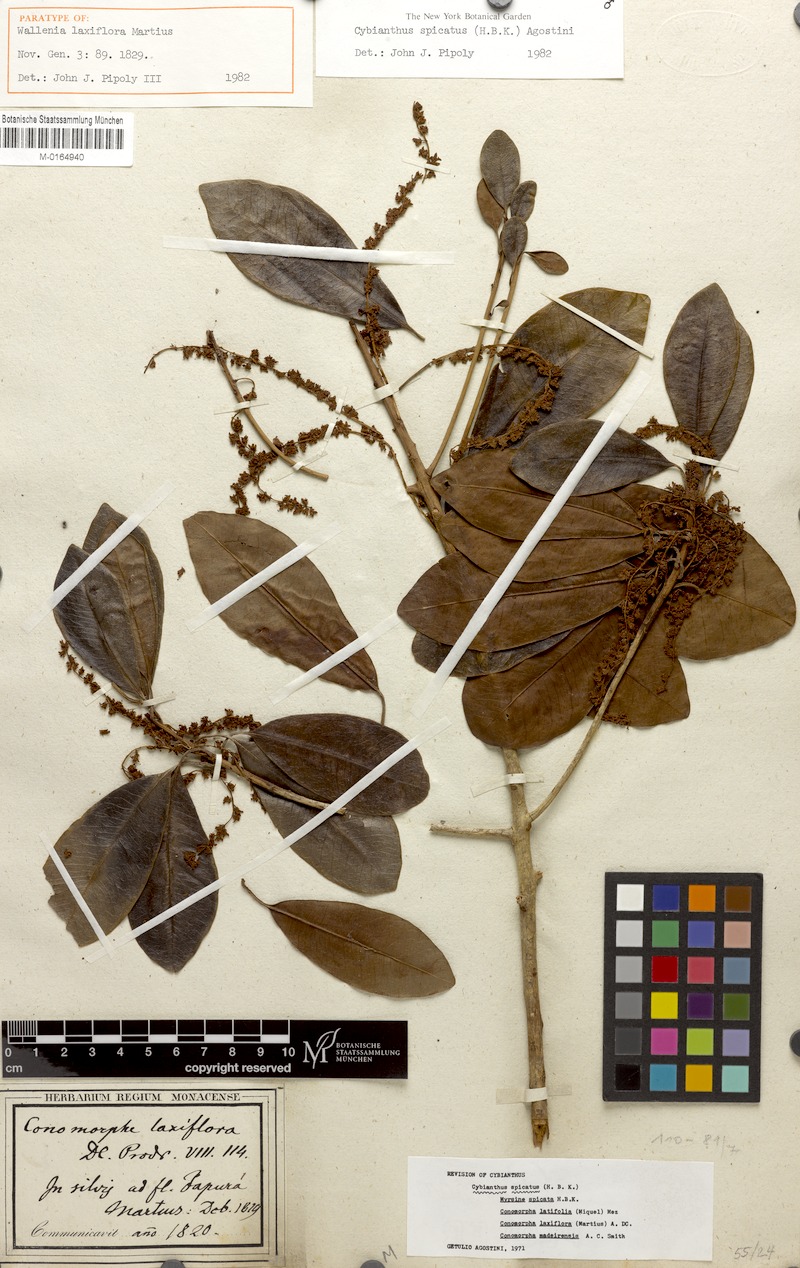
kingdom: Plantae
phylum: Tracheophyta
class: Magnoliopsida
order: Ericales
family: Primulaceae
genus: Cybianthus
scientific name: Cybianthus spicatus
